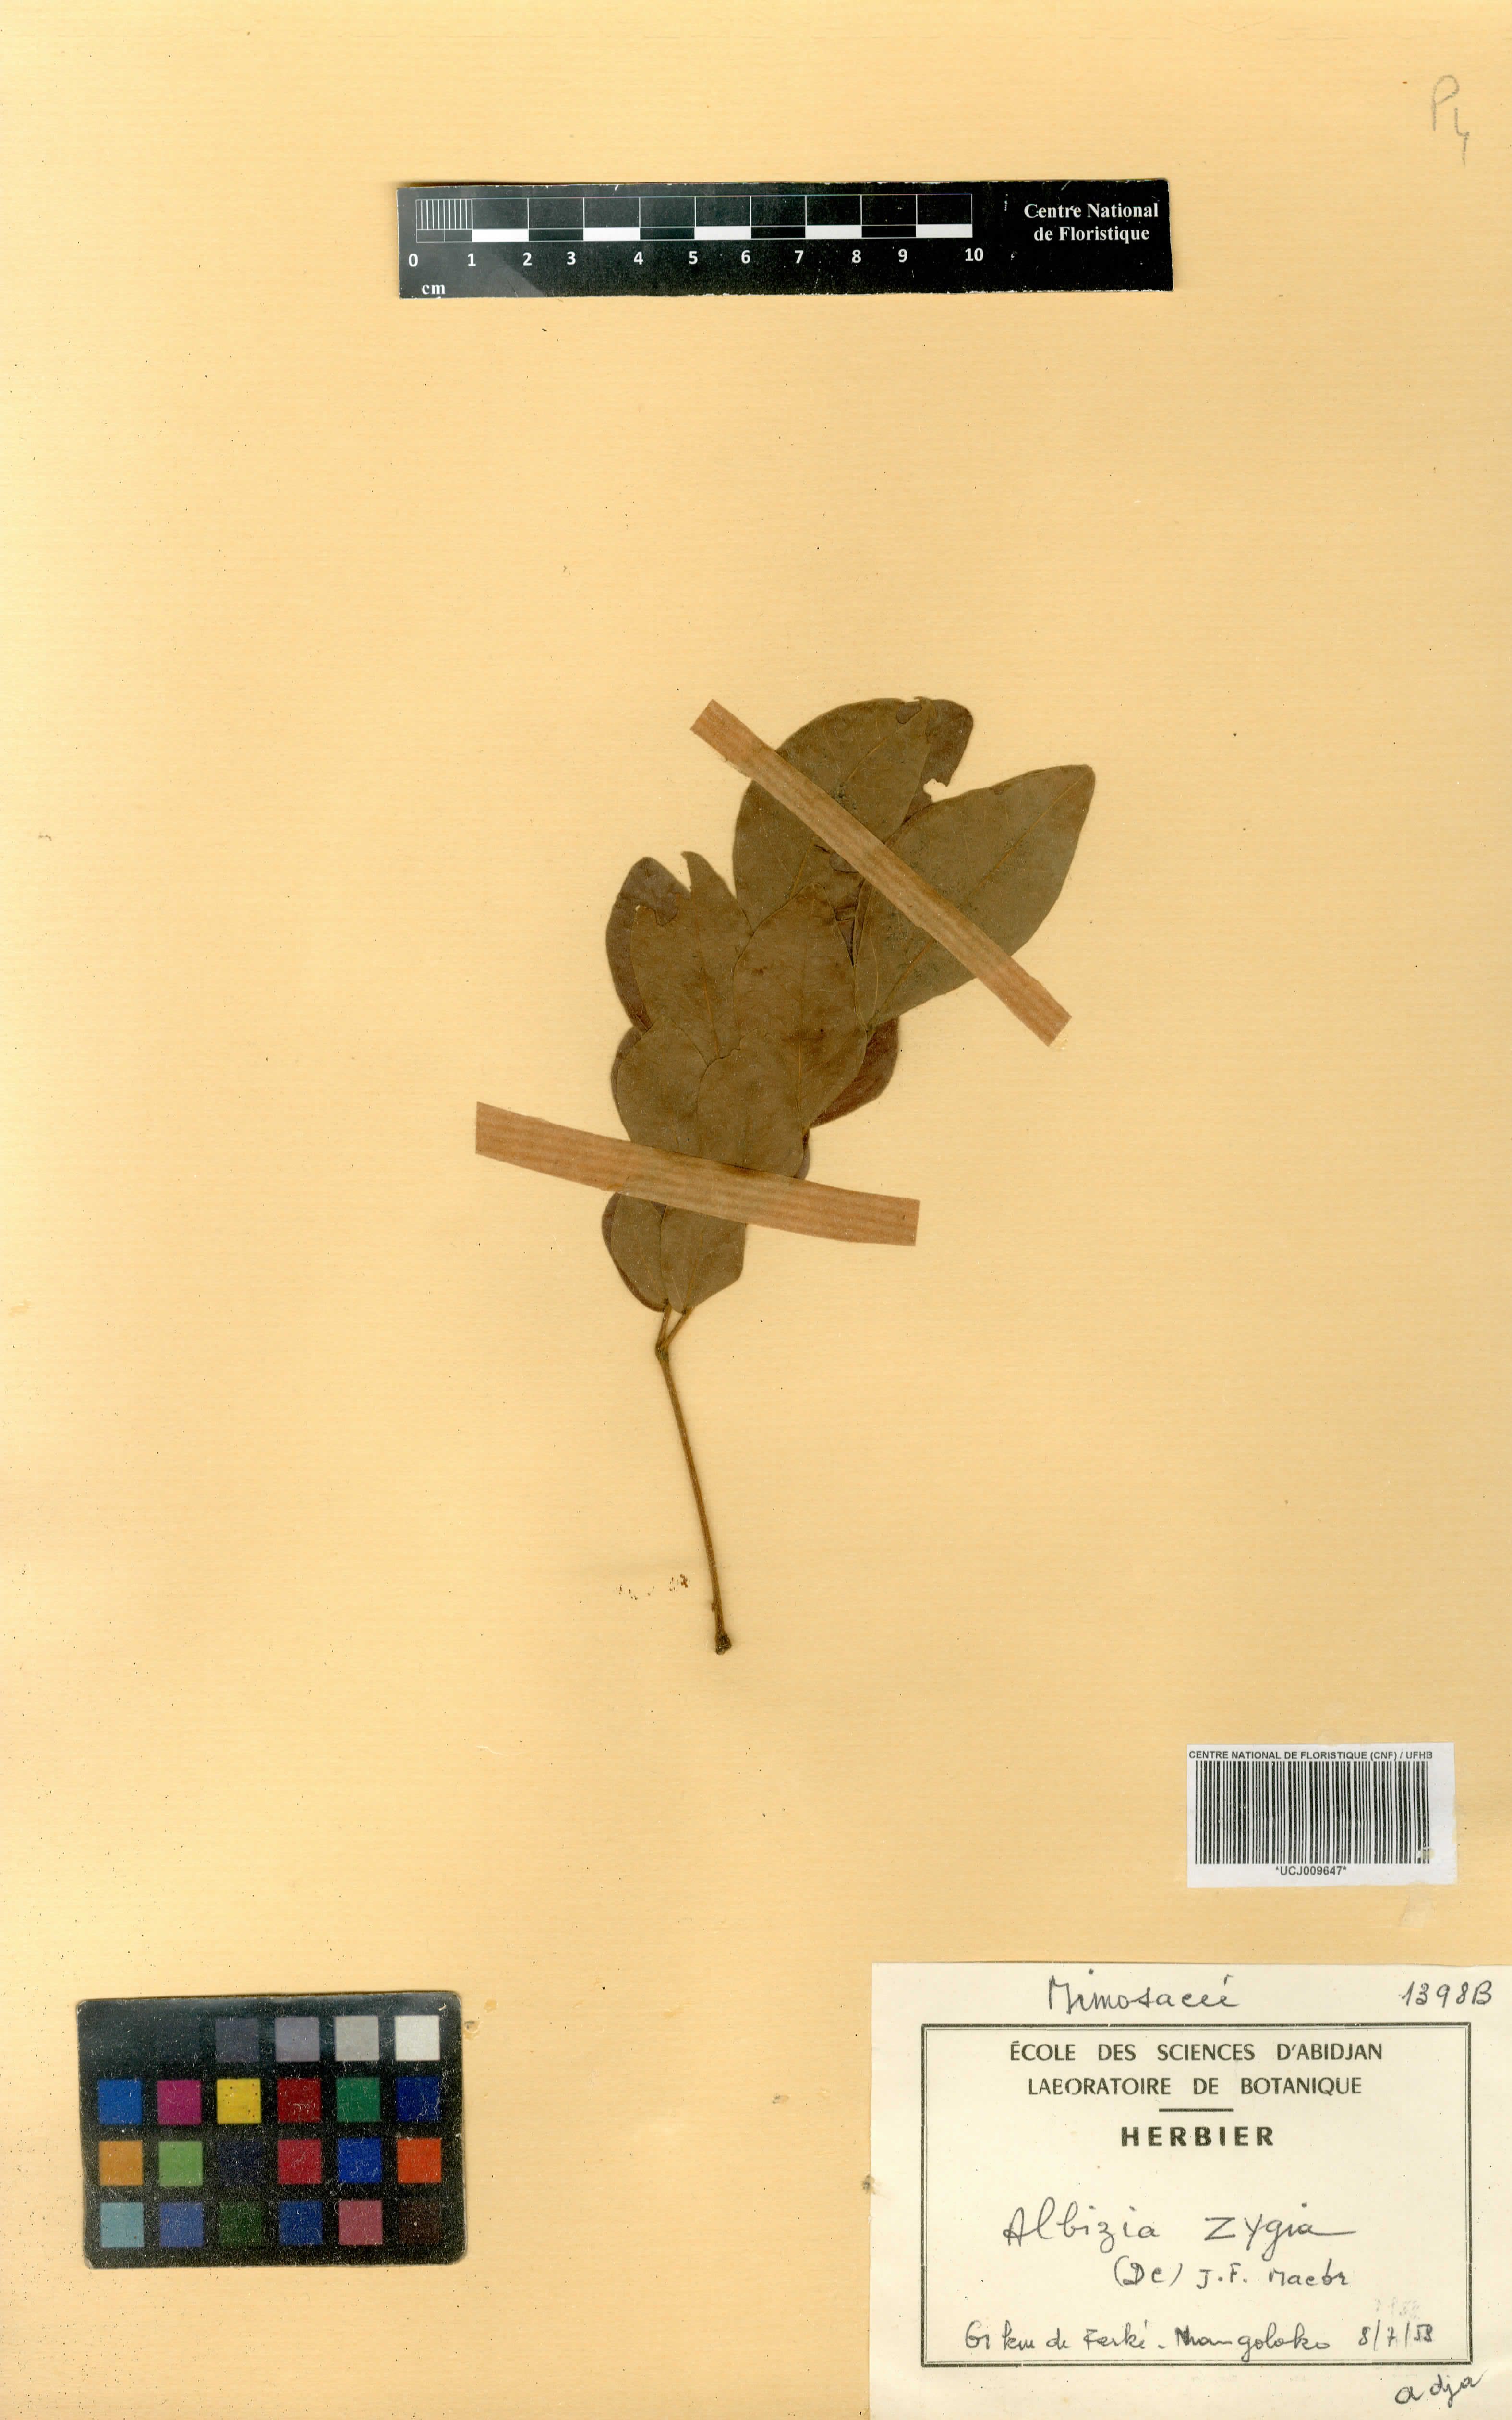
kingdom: Plantae
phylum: Tracheophyta
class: Magnoliopsida
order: Fabales
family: Fabaceae
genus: Albizia
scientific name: Albizia zygia
